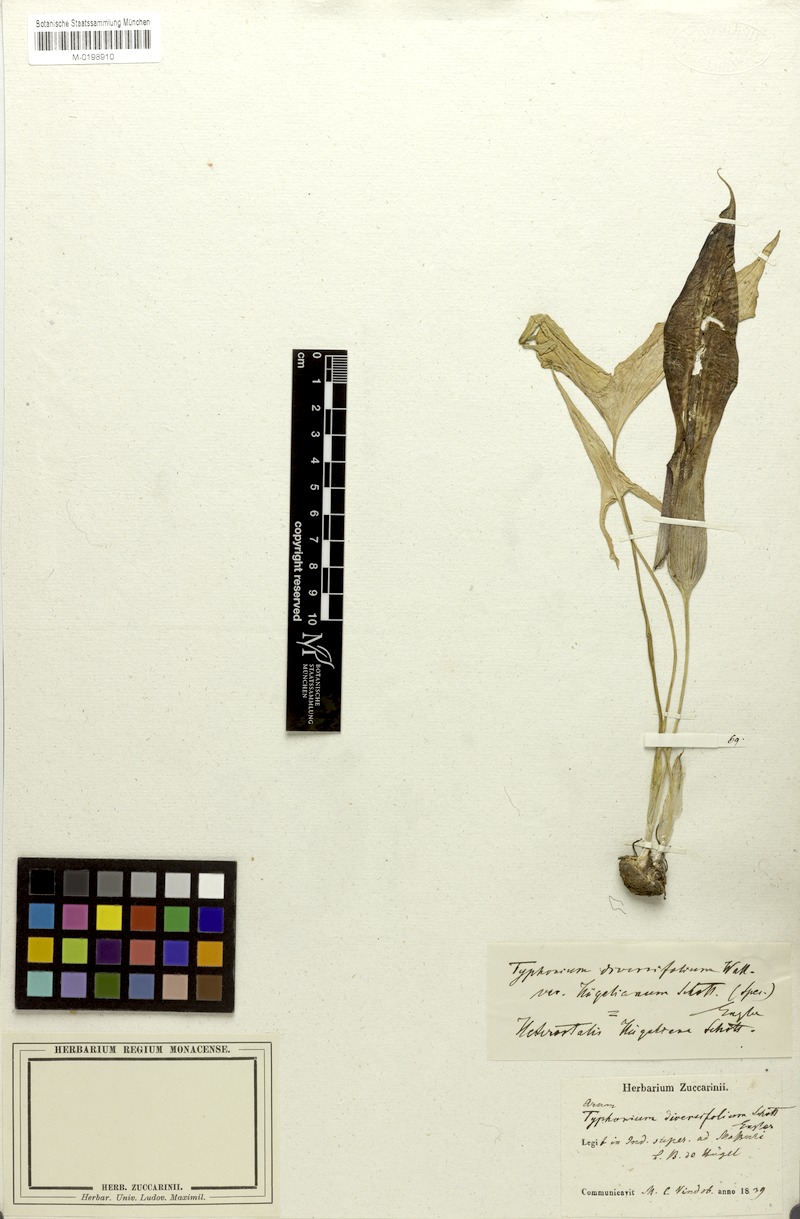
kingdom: Plantae
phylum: Tracheophyta
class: Liliopsida
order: Alismatales
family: Araceae
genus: Sauromatum
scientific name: Sauromatum diversifolium
